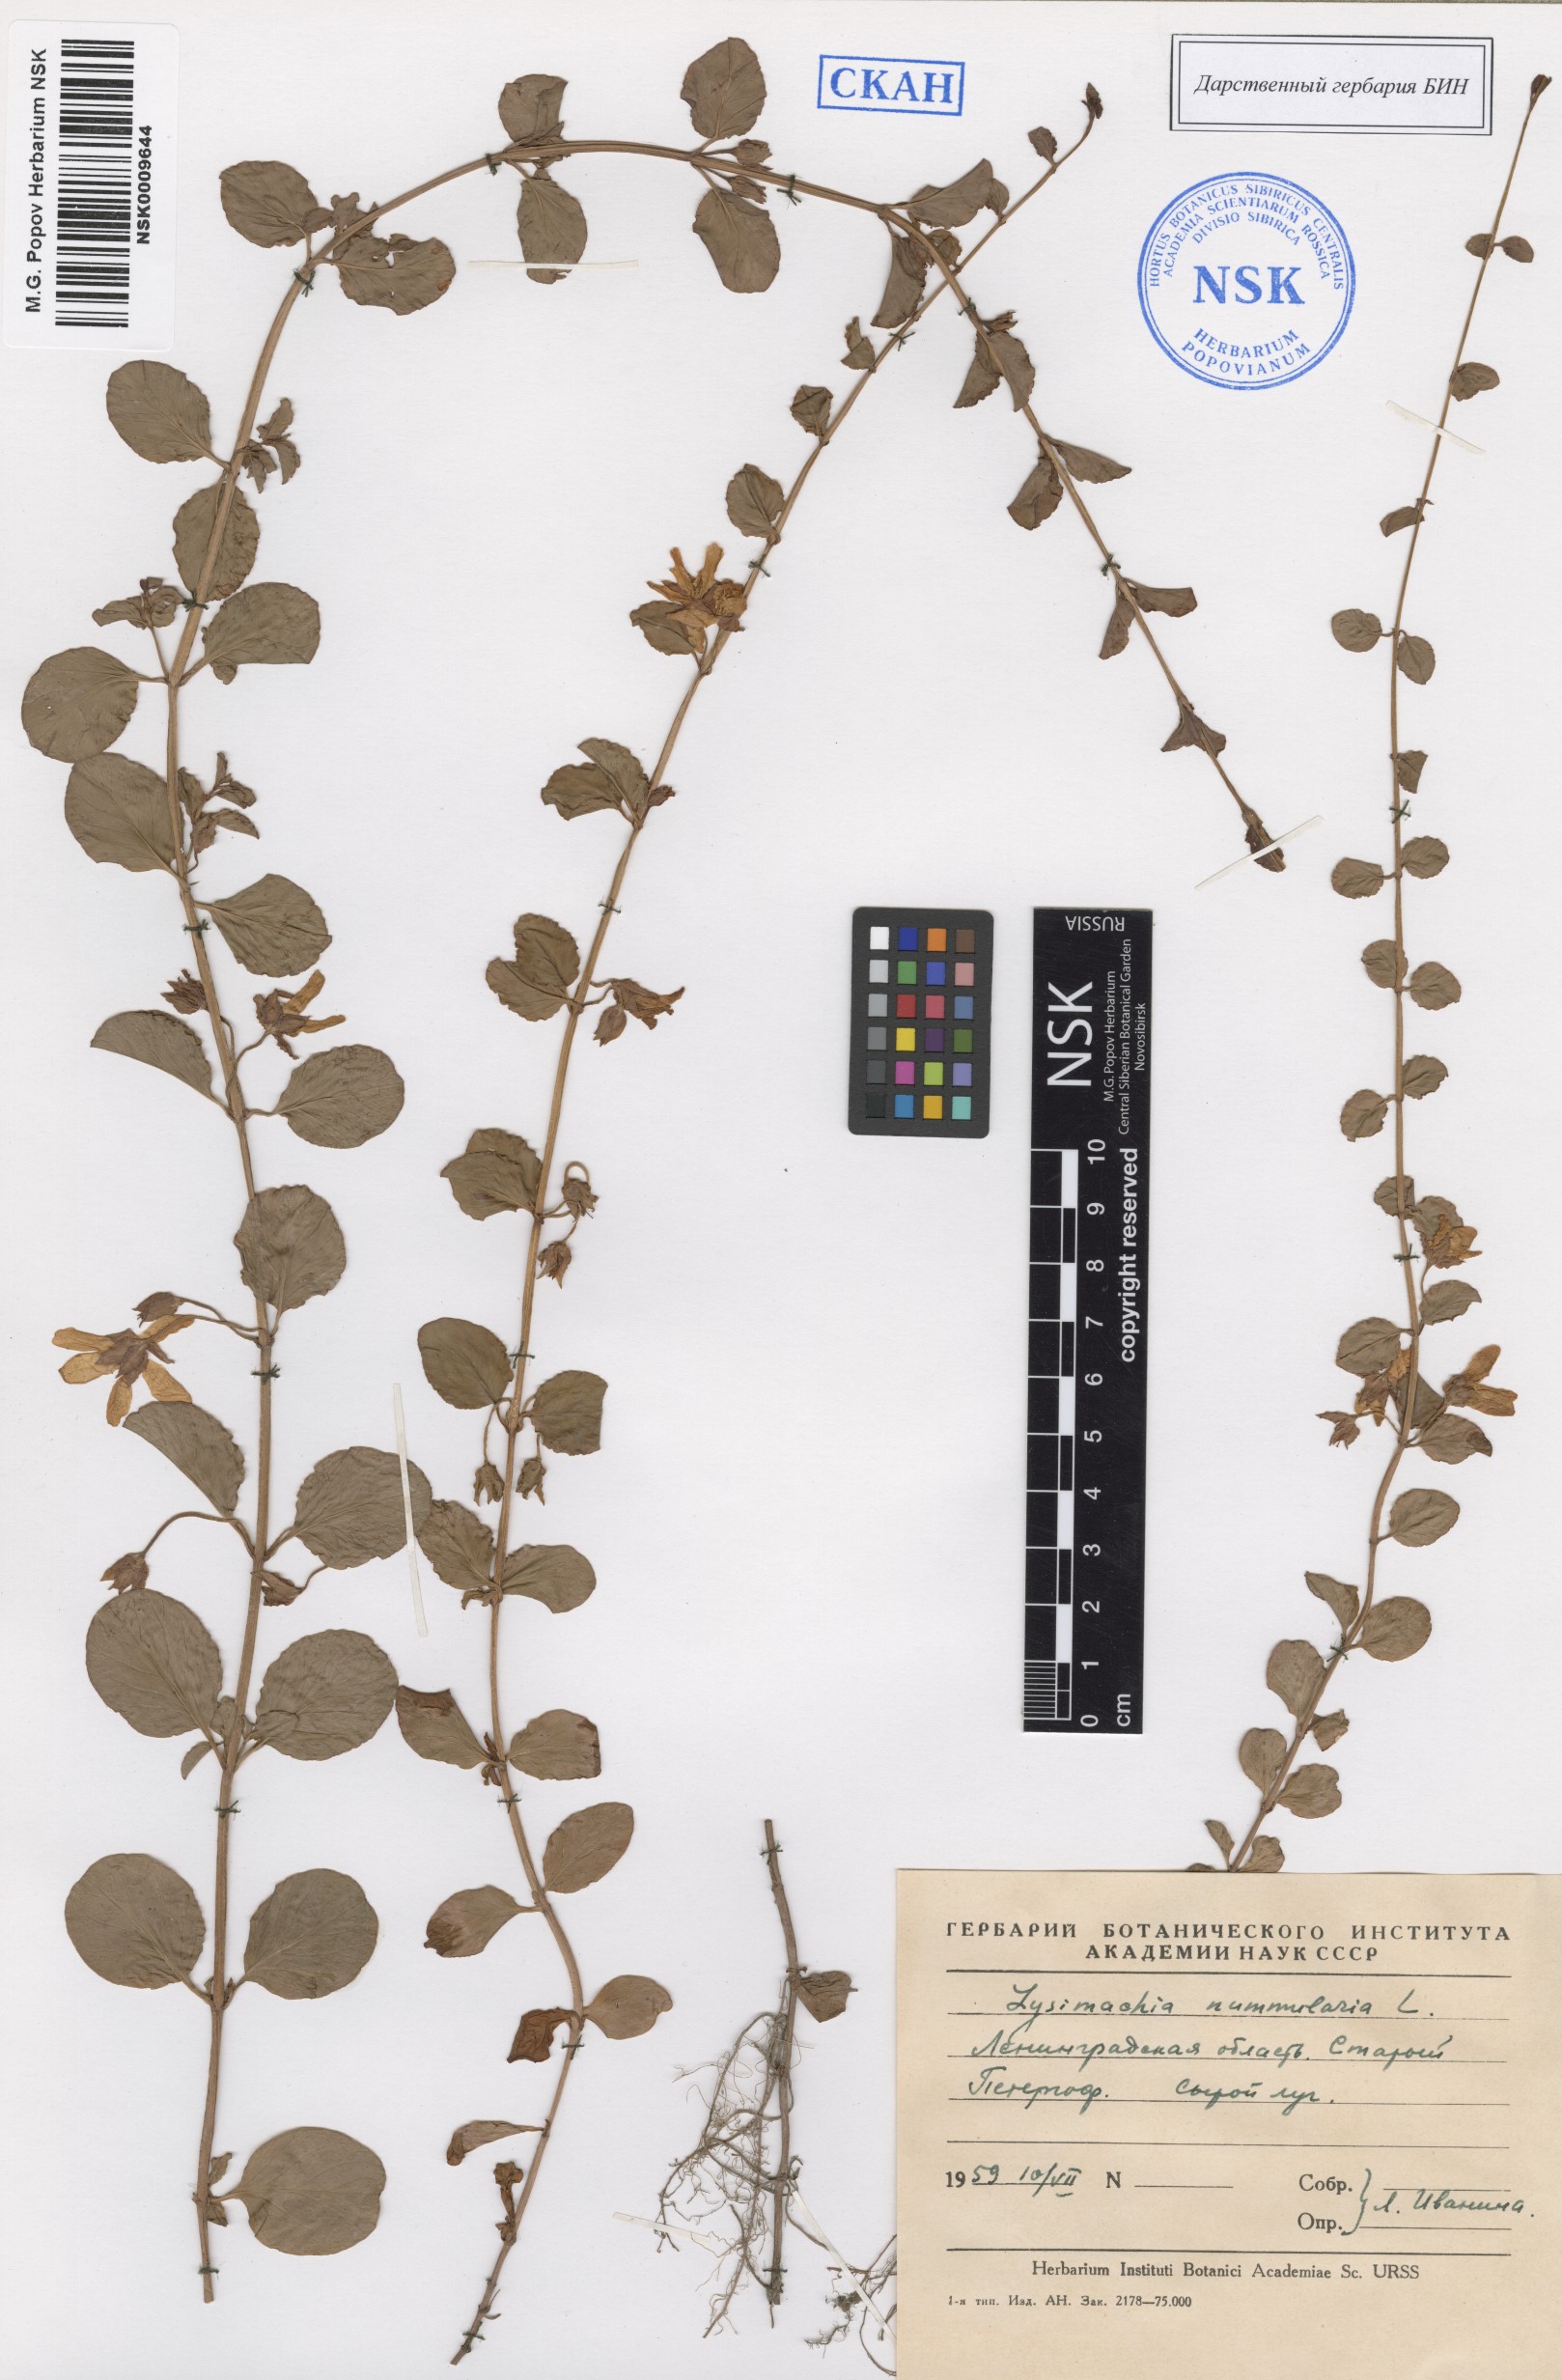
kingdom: Plantae
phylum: Tracheophyta
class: Magnoliopsida
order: Ericales
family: Primulaceae
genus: Lysimachia
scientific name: Lysimachia nummularia
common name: Moneywort
